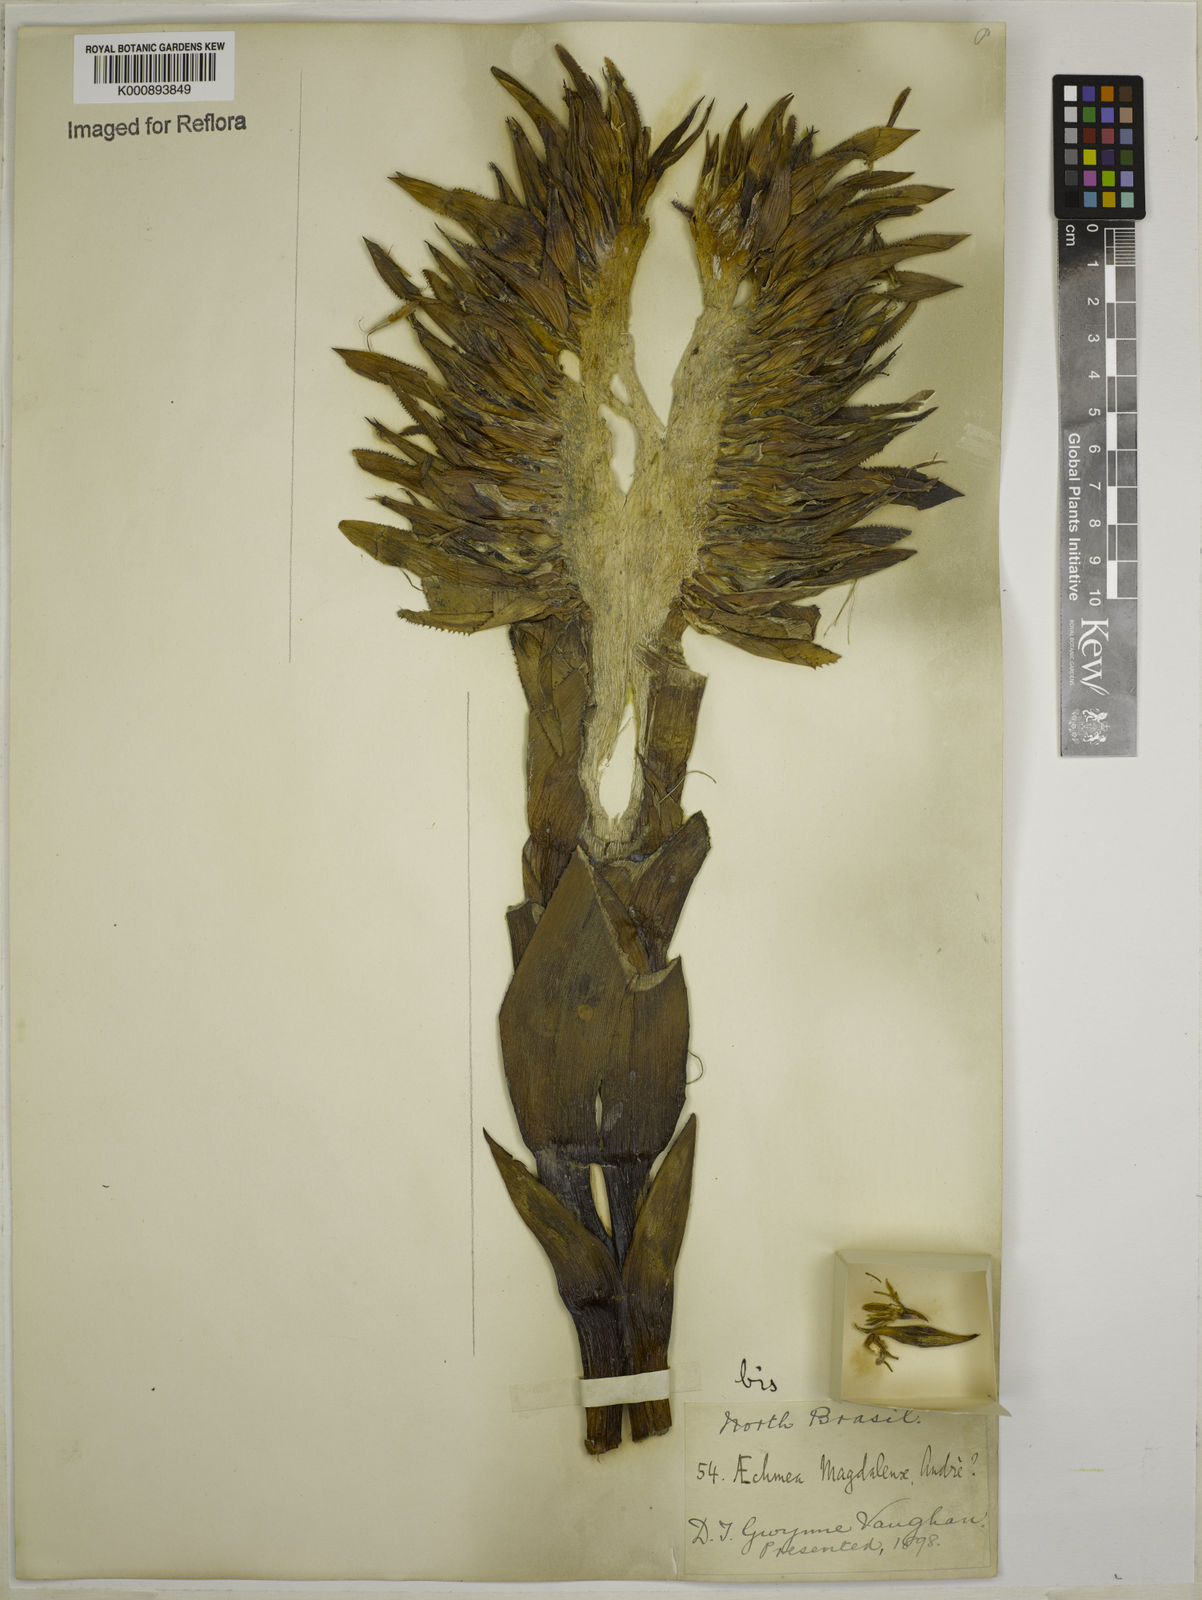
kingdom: Plantae
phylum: Tracheophyta
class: Liliopsida
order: Poales
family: Bromeliaceae
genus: Aechmea
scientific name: Aechmea
